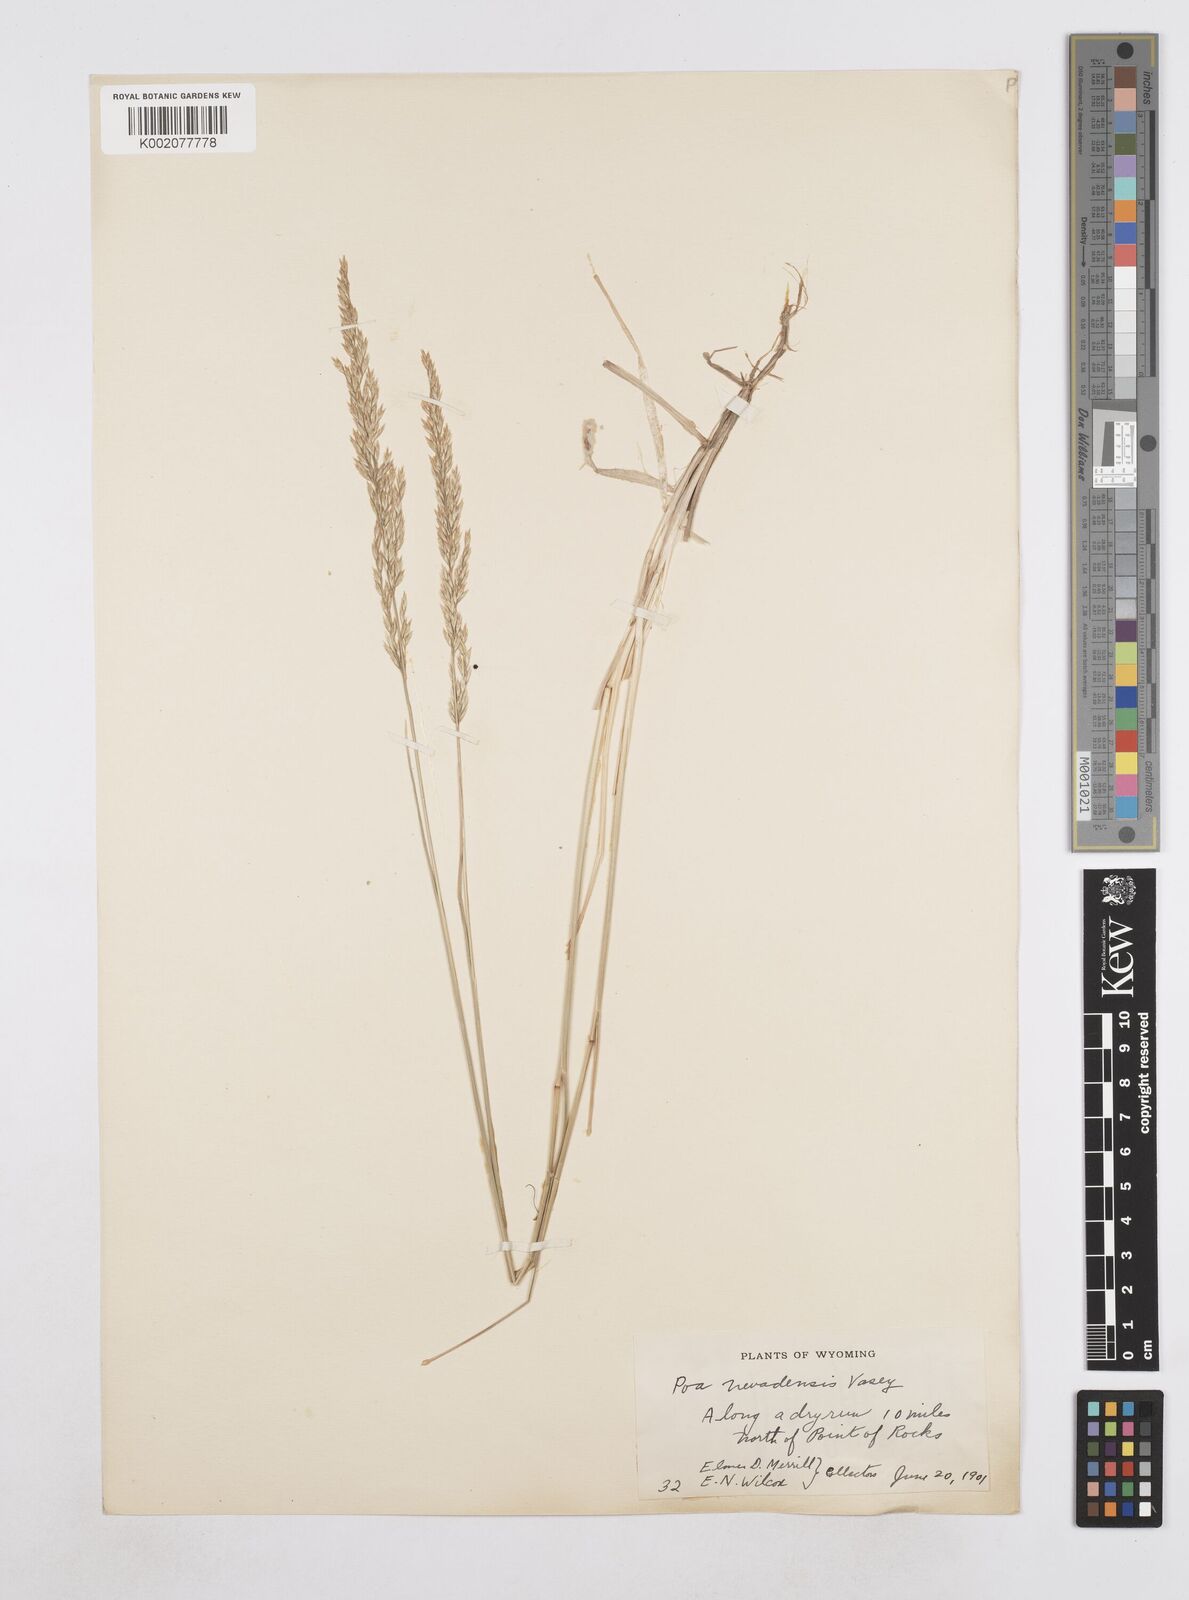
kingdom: Plantae
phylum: Tracheophyta
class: Liliopsida
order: Poales
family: Poaceae
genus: Poa
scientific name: Poa secunda
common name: Sandberg bluegrass
